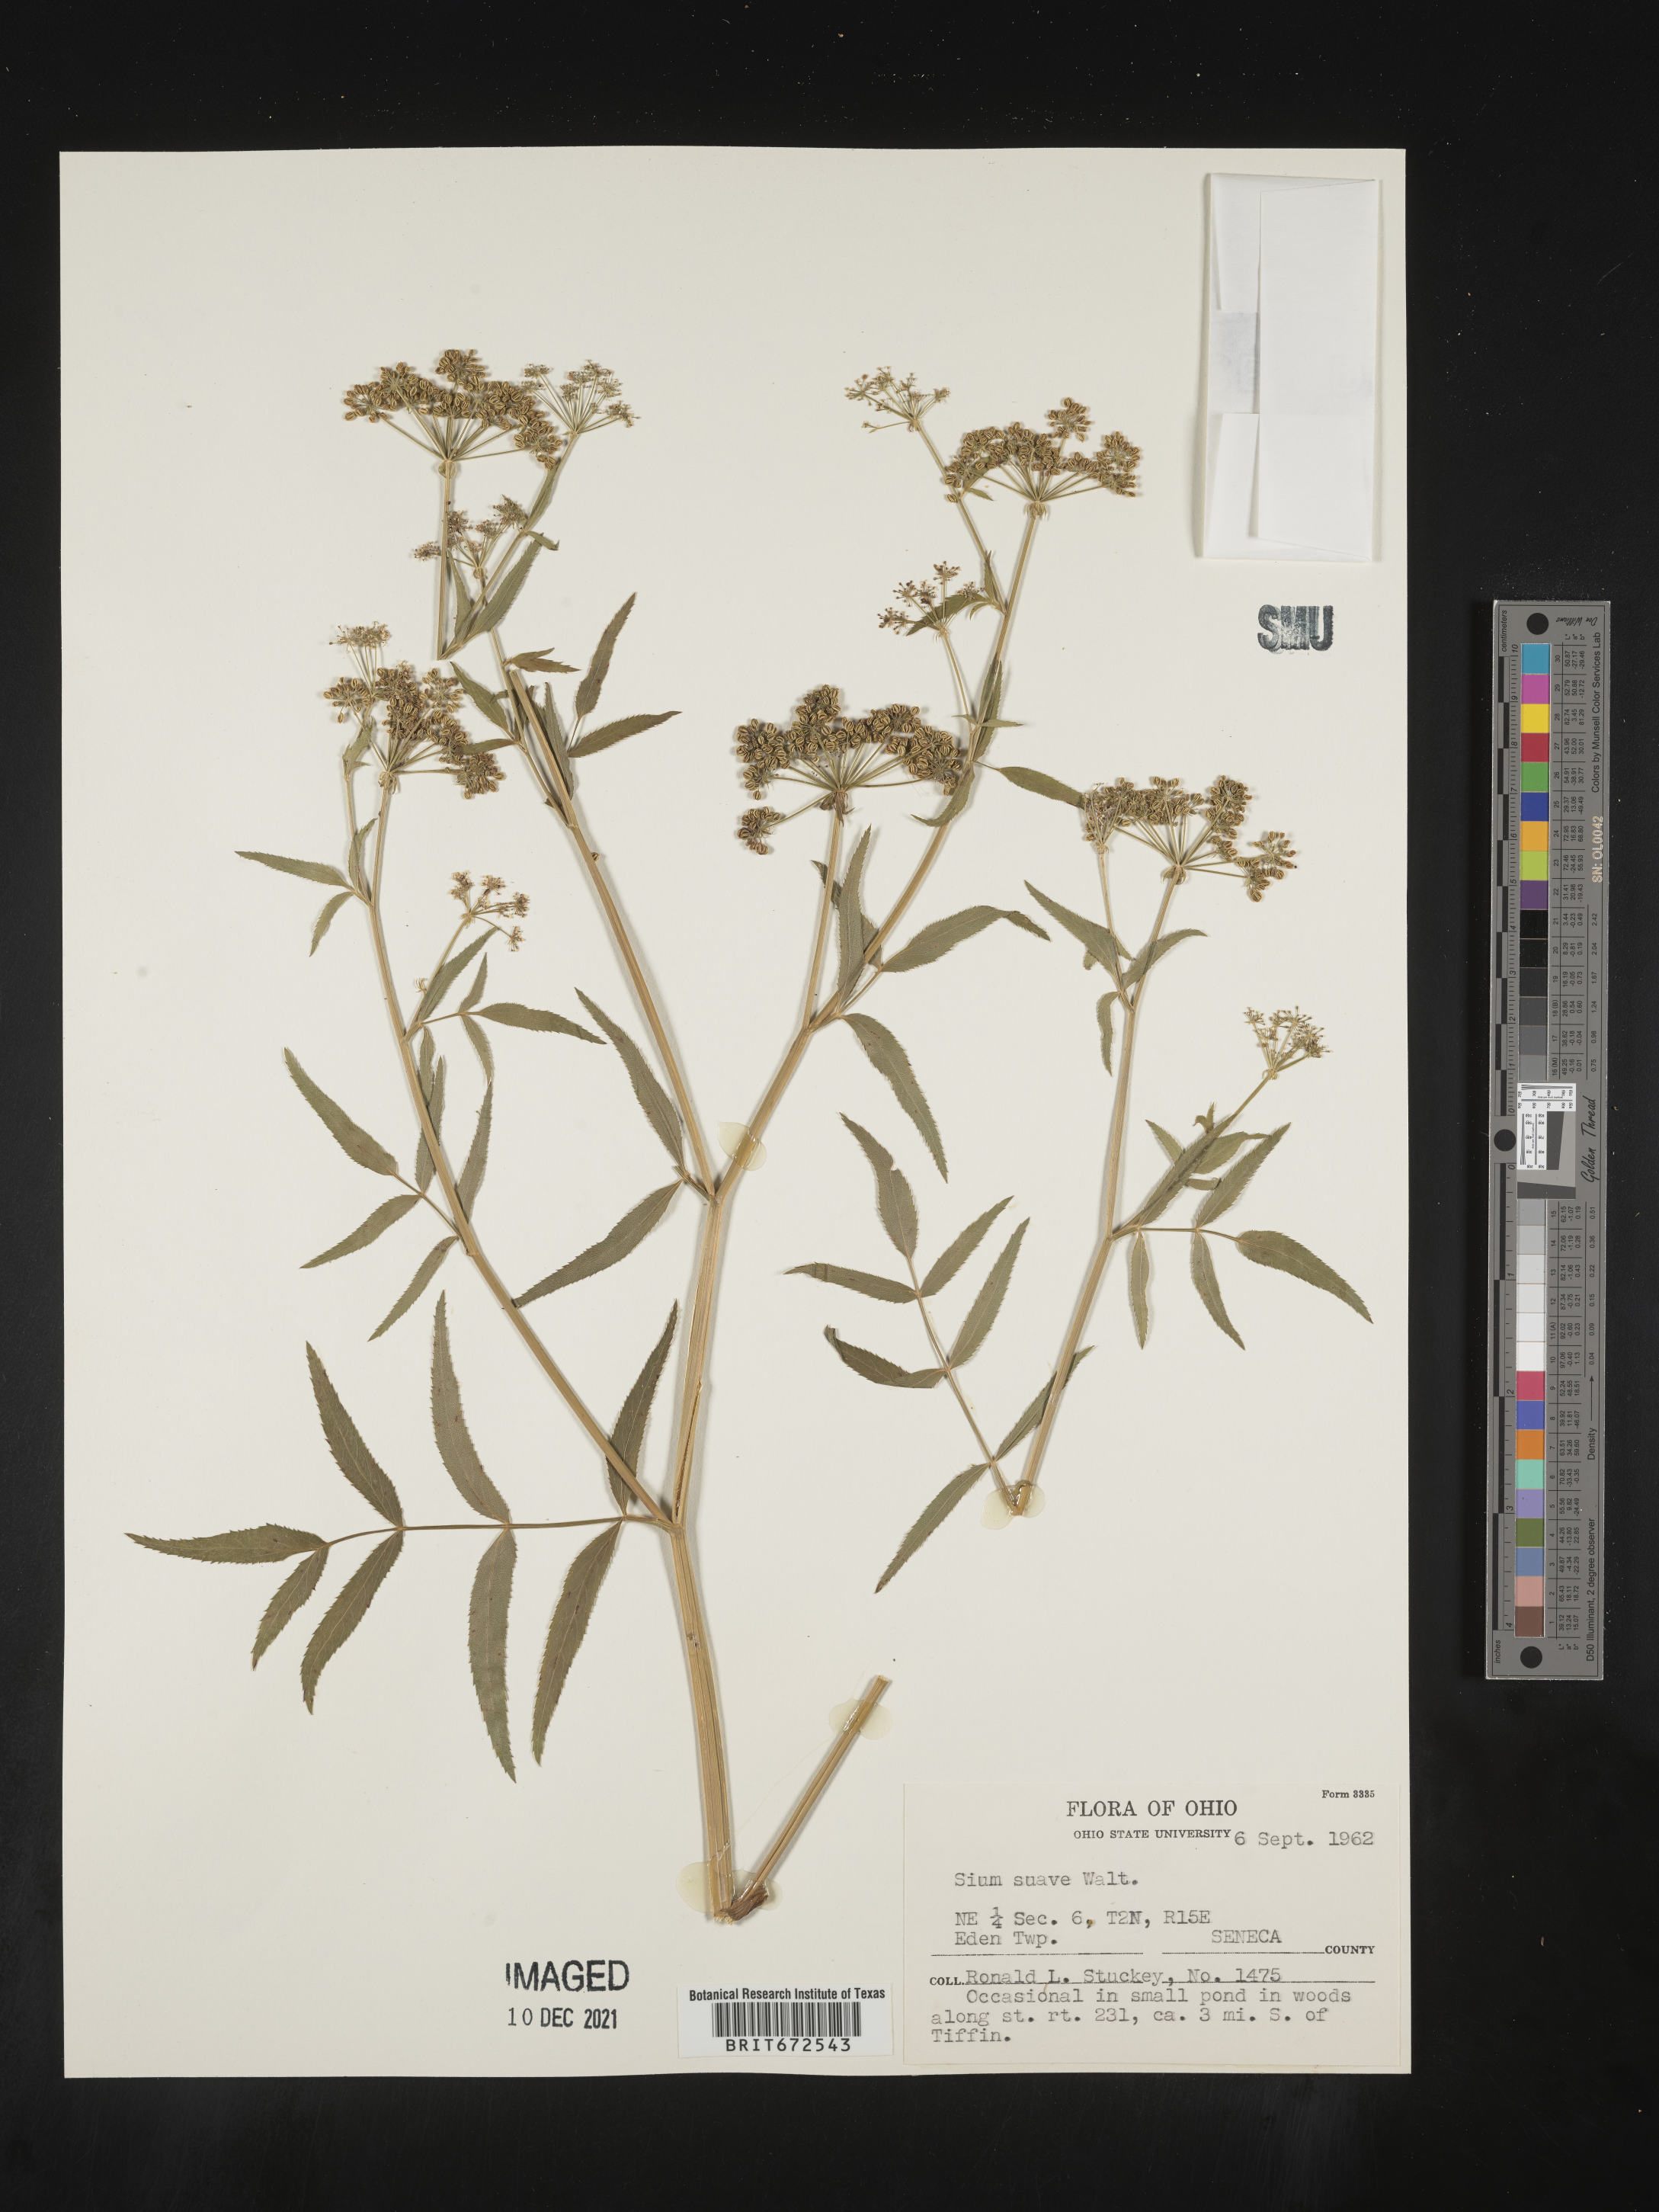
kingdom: Plantae
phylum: Tracheophyta
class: Magnoliopsida
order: Apiales
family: Apiaceae
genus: Sium
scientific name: Sium suave
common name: Hemlock water-parsnip
